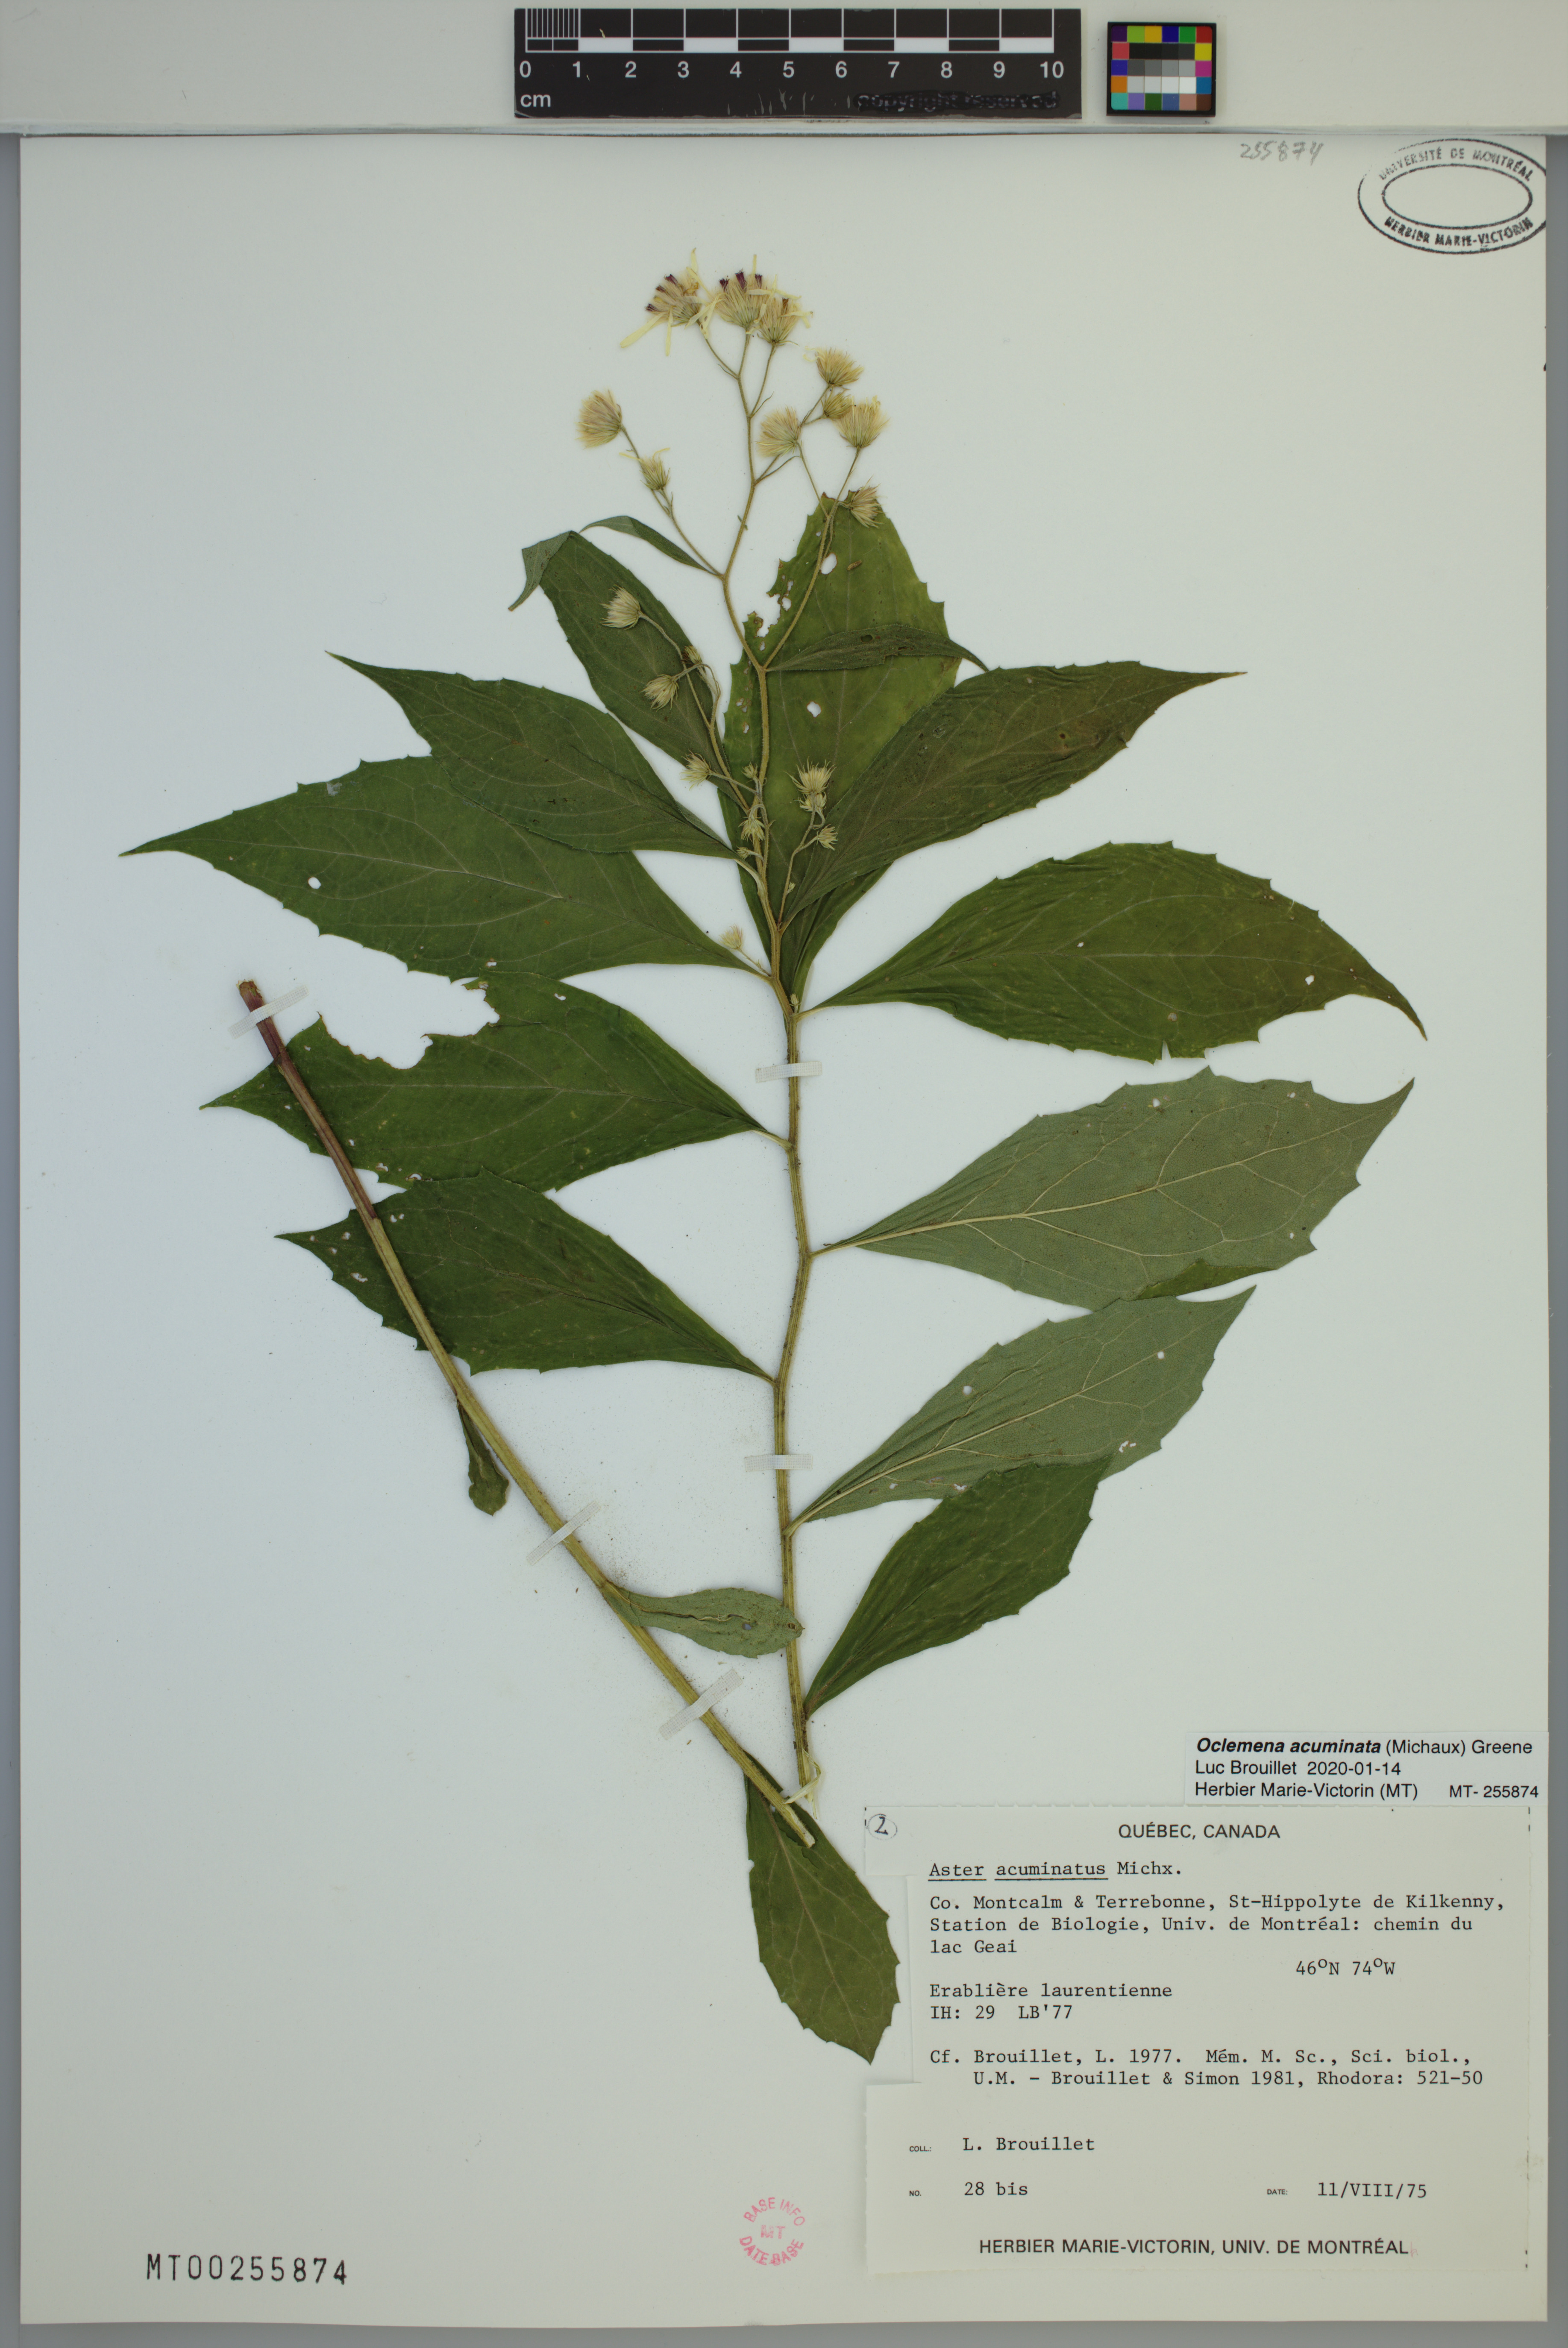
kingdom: Plantae
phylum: Tracheophyta
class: Magnoliopsida
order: Asterales
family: Asteraceae
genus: Oclemena
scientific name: Oclemena acuminata
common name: Mountain aster
